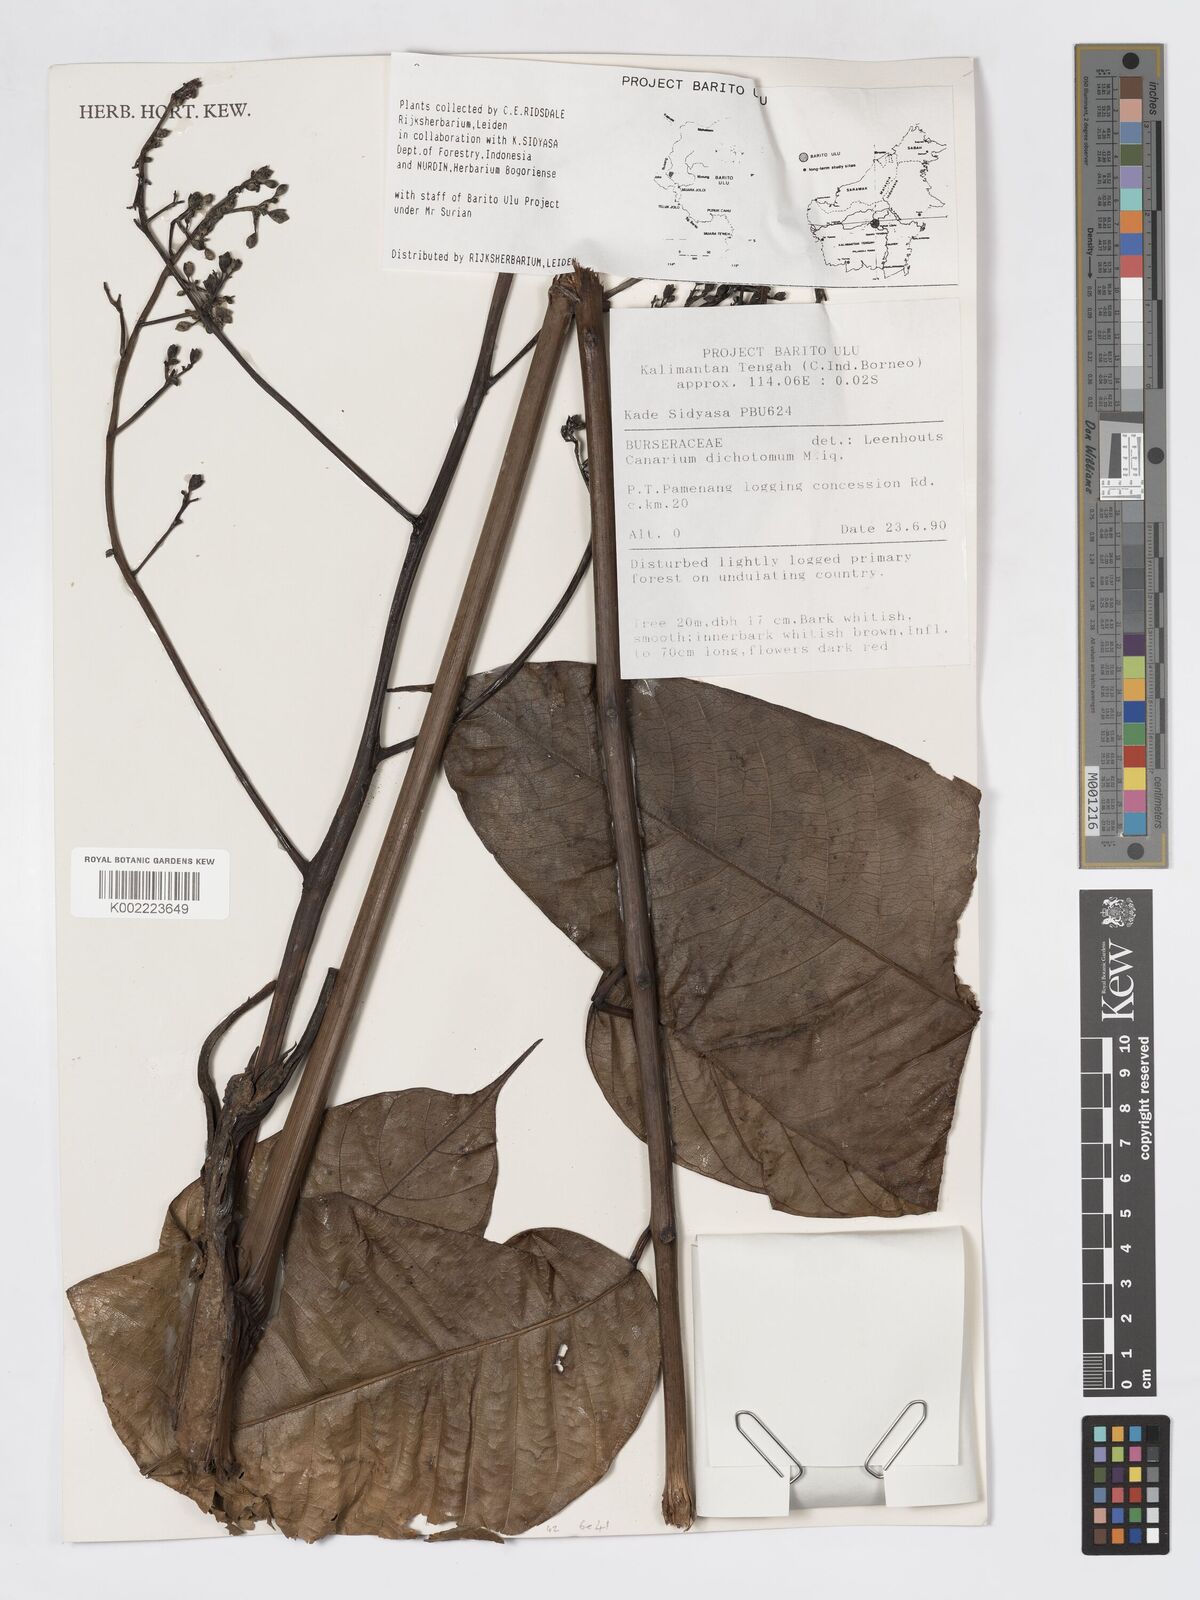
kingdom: Plantae
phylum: Tracheophyta
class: Magnoliopsida
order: Sapindales
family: Burseraceae
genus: Canarium
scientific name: Canarium dichotomum
